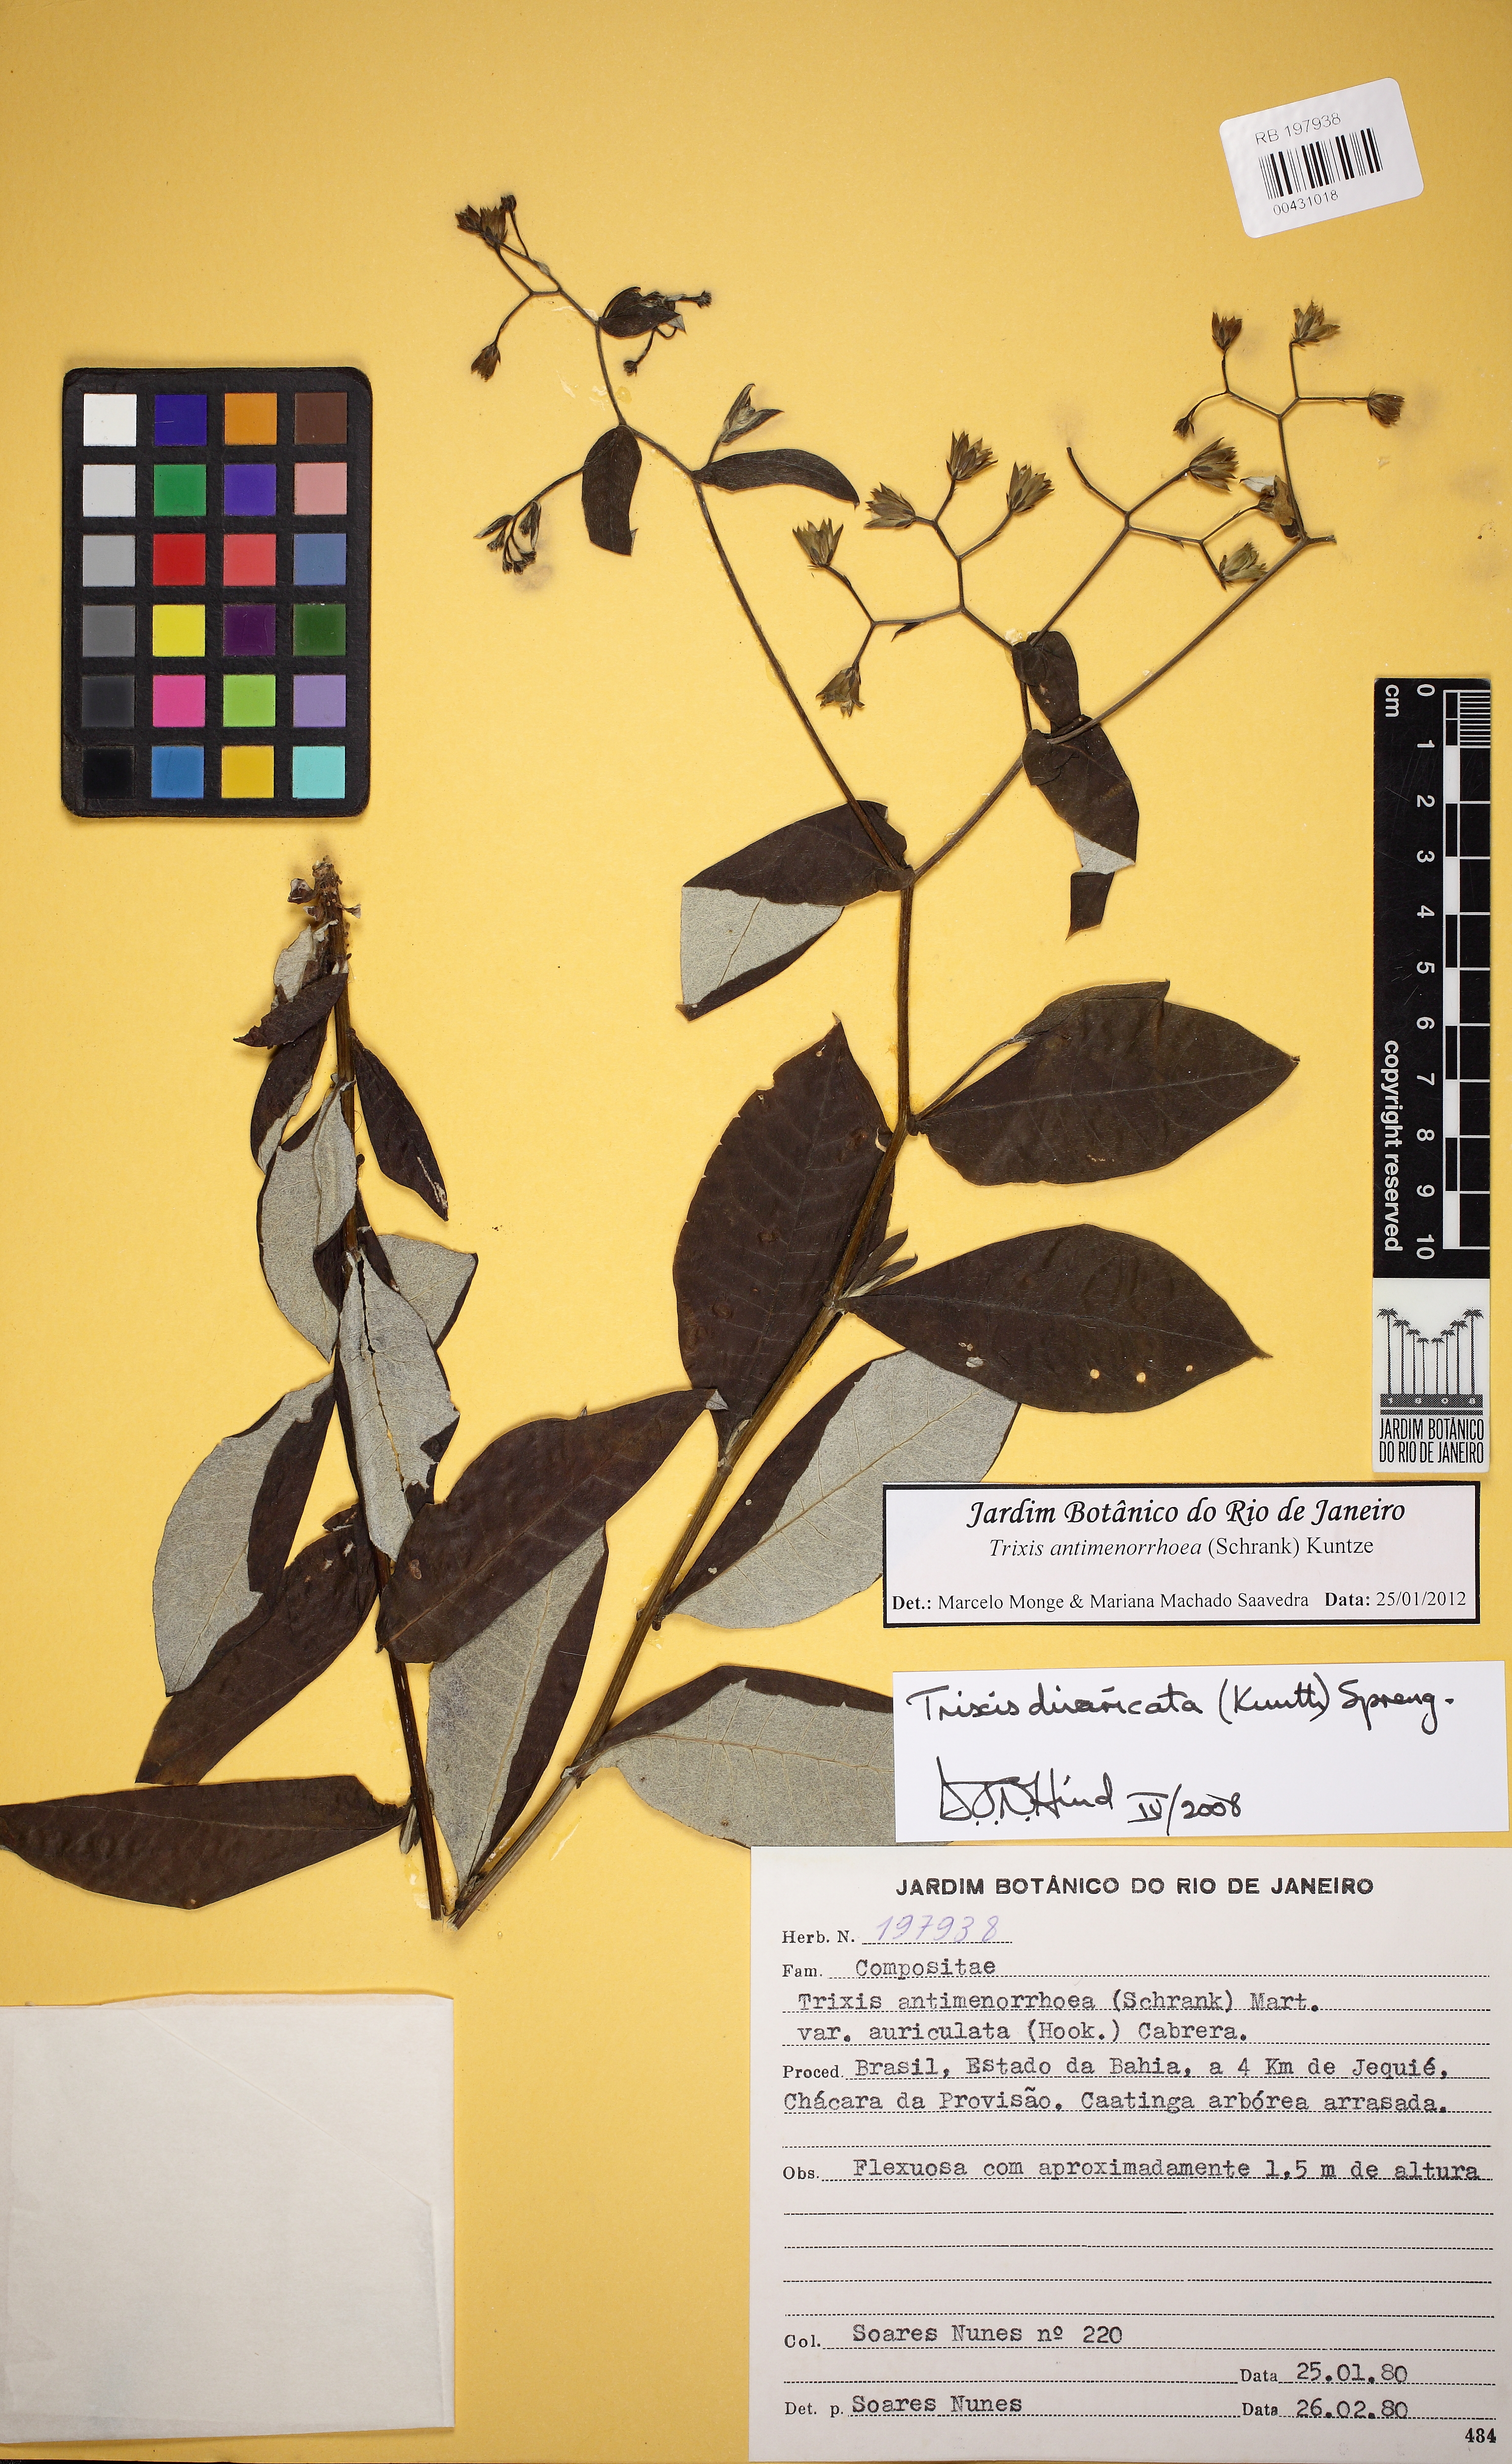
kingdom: Plantae
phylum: Tracheophyta
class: Magnoliopsida
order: Asterales
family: Asteraceae
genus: Trixis
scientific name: Trixis divaricata
